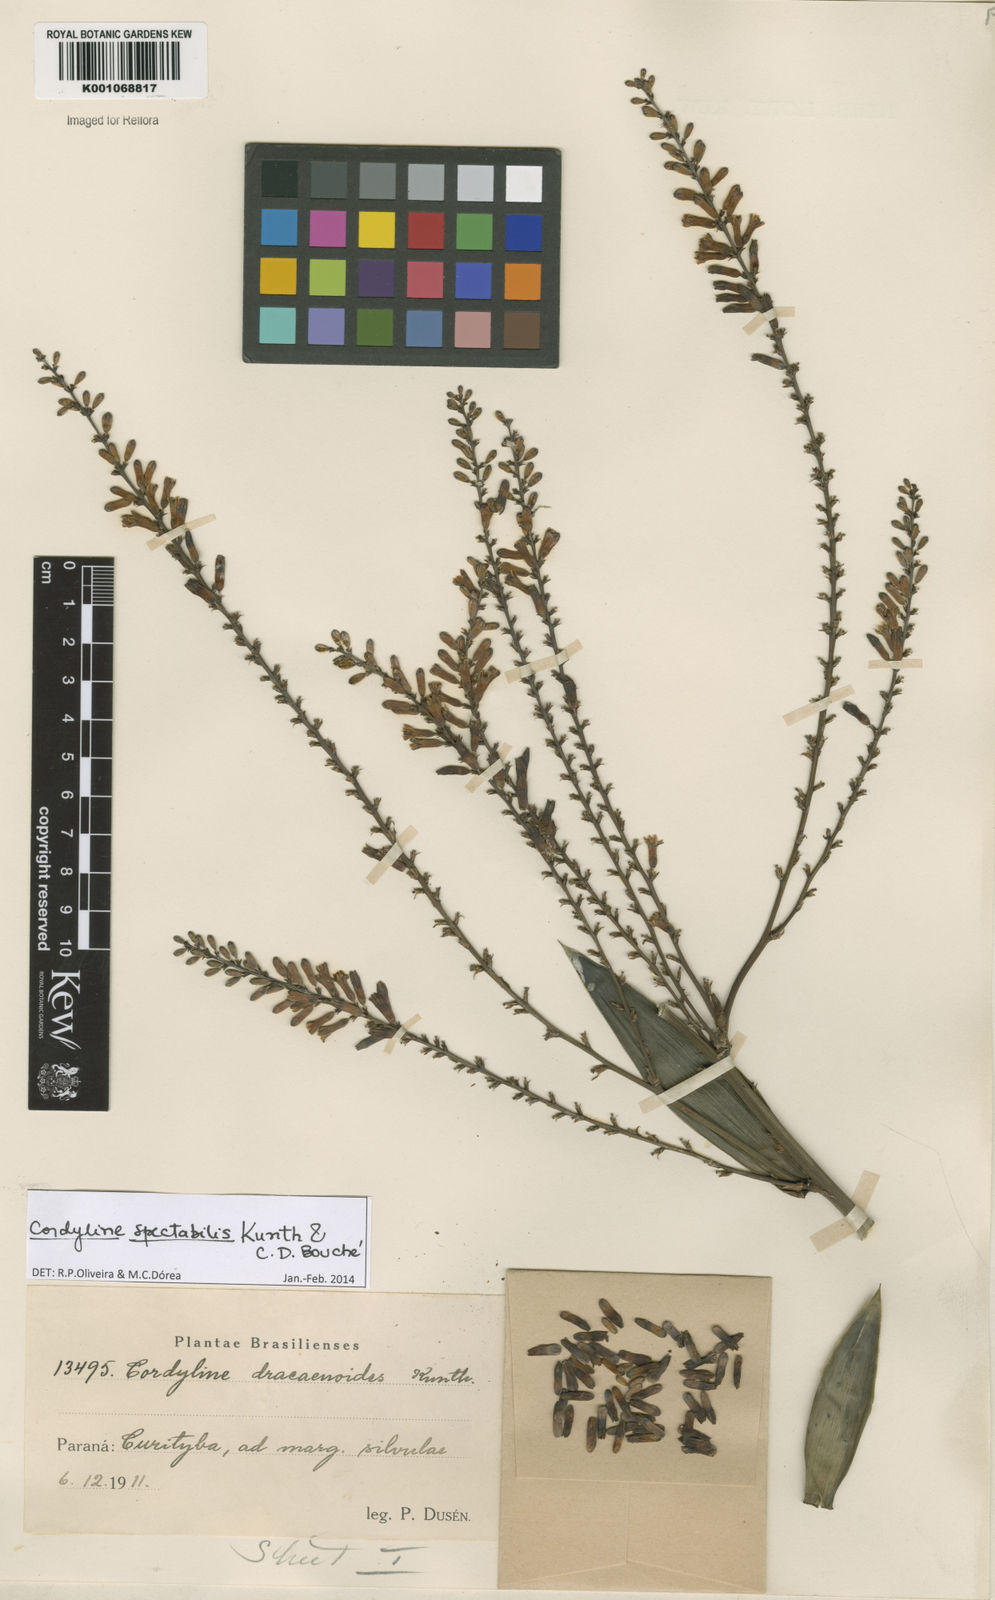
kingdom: Plantae
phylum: Tracheophyta
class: Liliopsida
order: Asparagales
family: Asparagaceae
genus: Cordyline
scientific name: Cordyline
